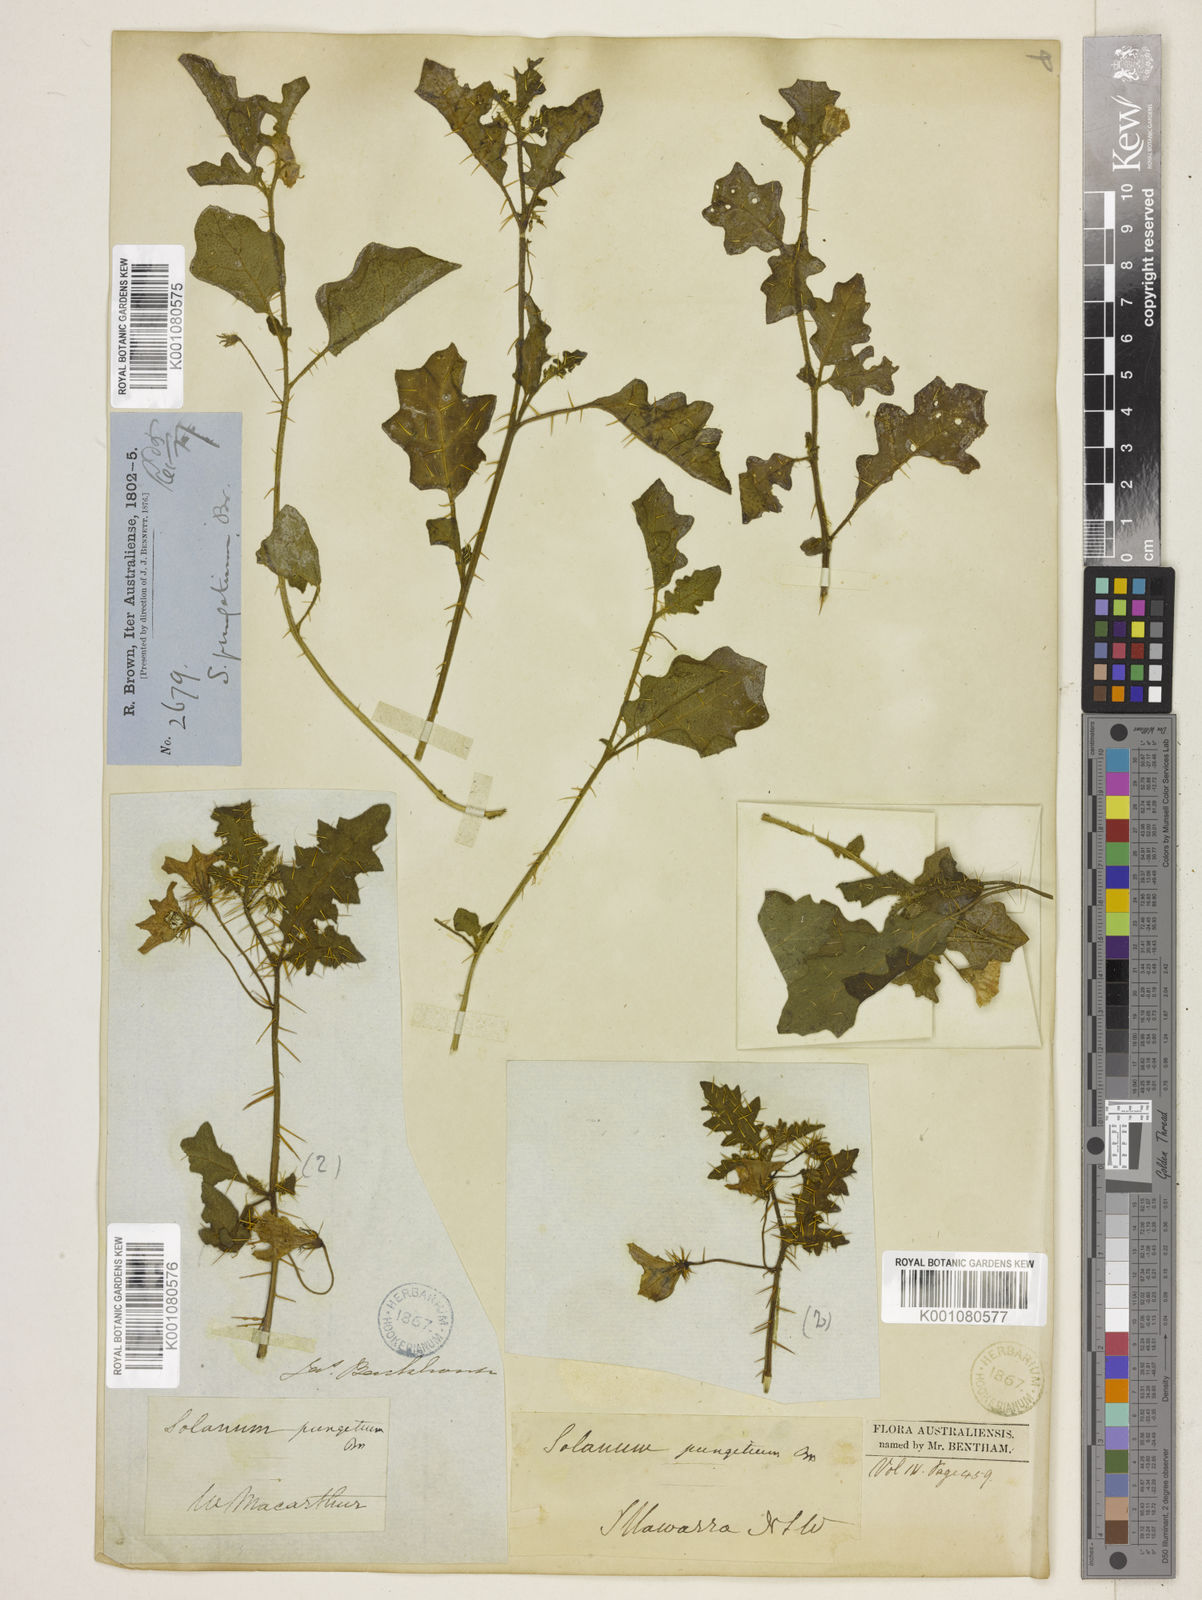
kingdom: Plantae
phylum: Tracheophyta
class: Magnoliopsida
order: Solanales
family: Solanaceae
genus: Solanum
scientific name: Solanum pungetium
